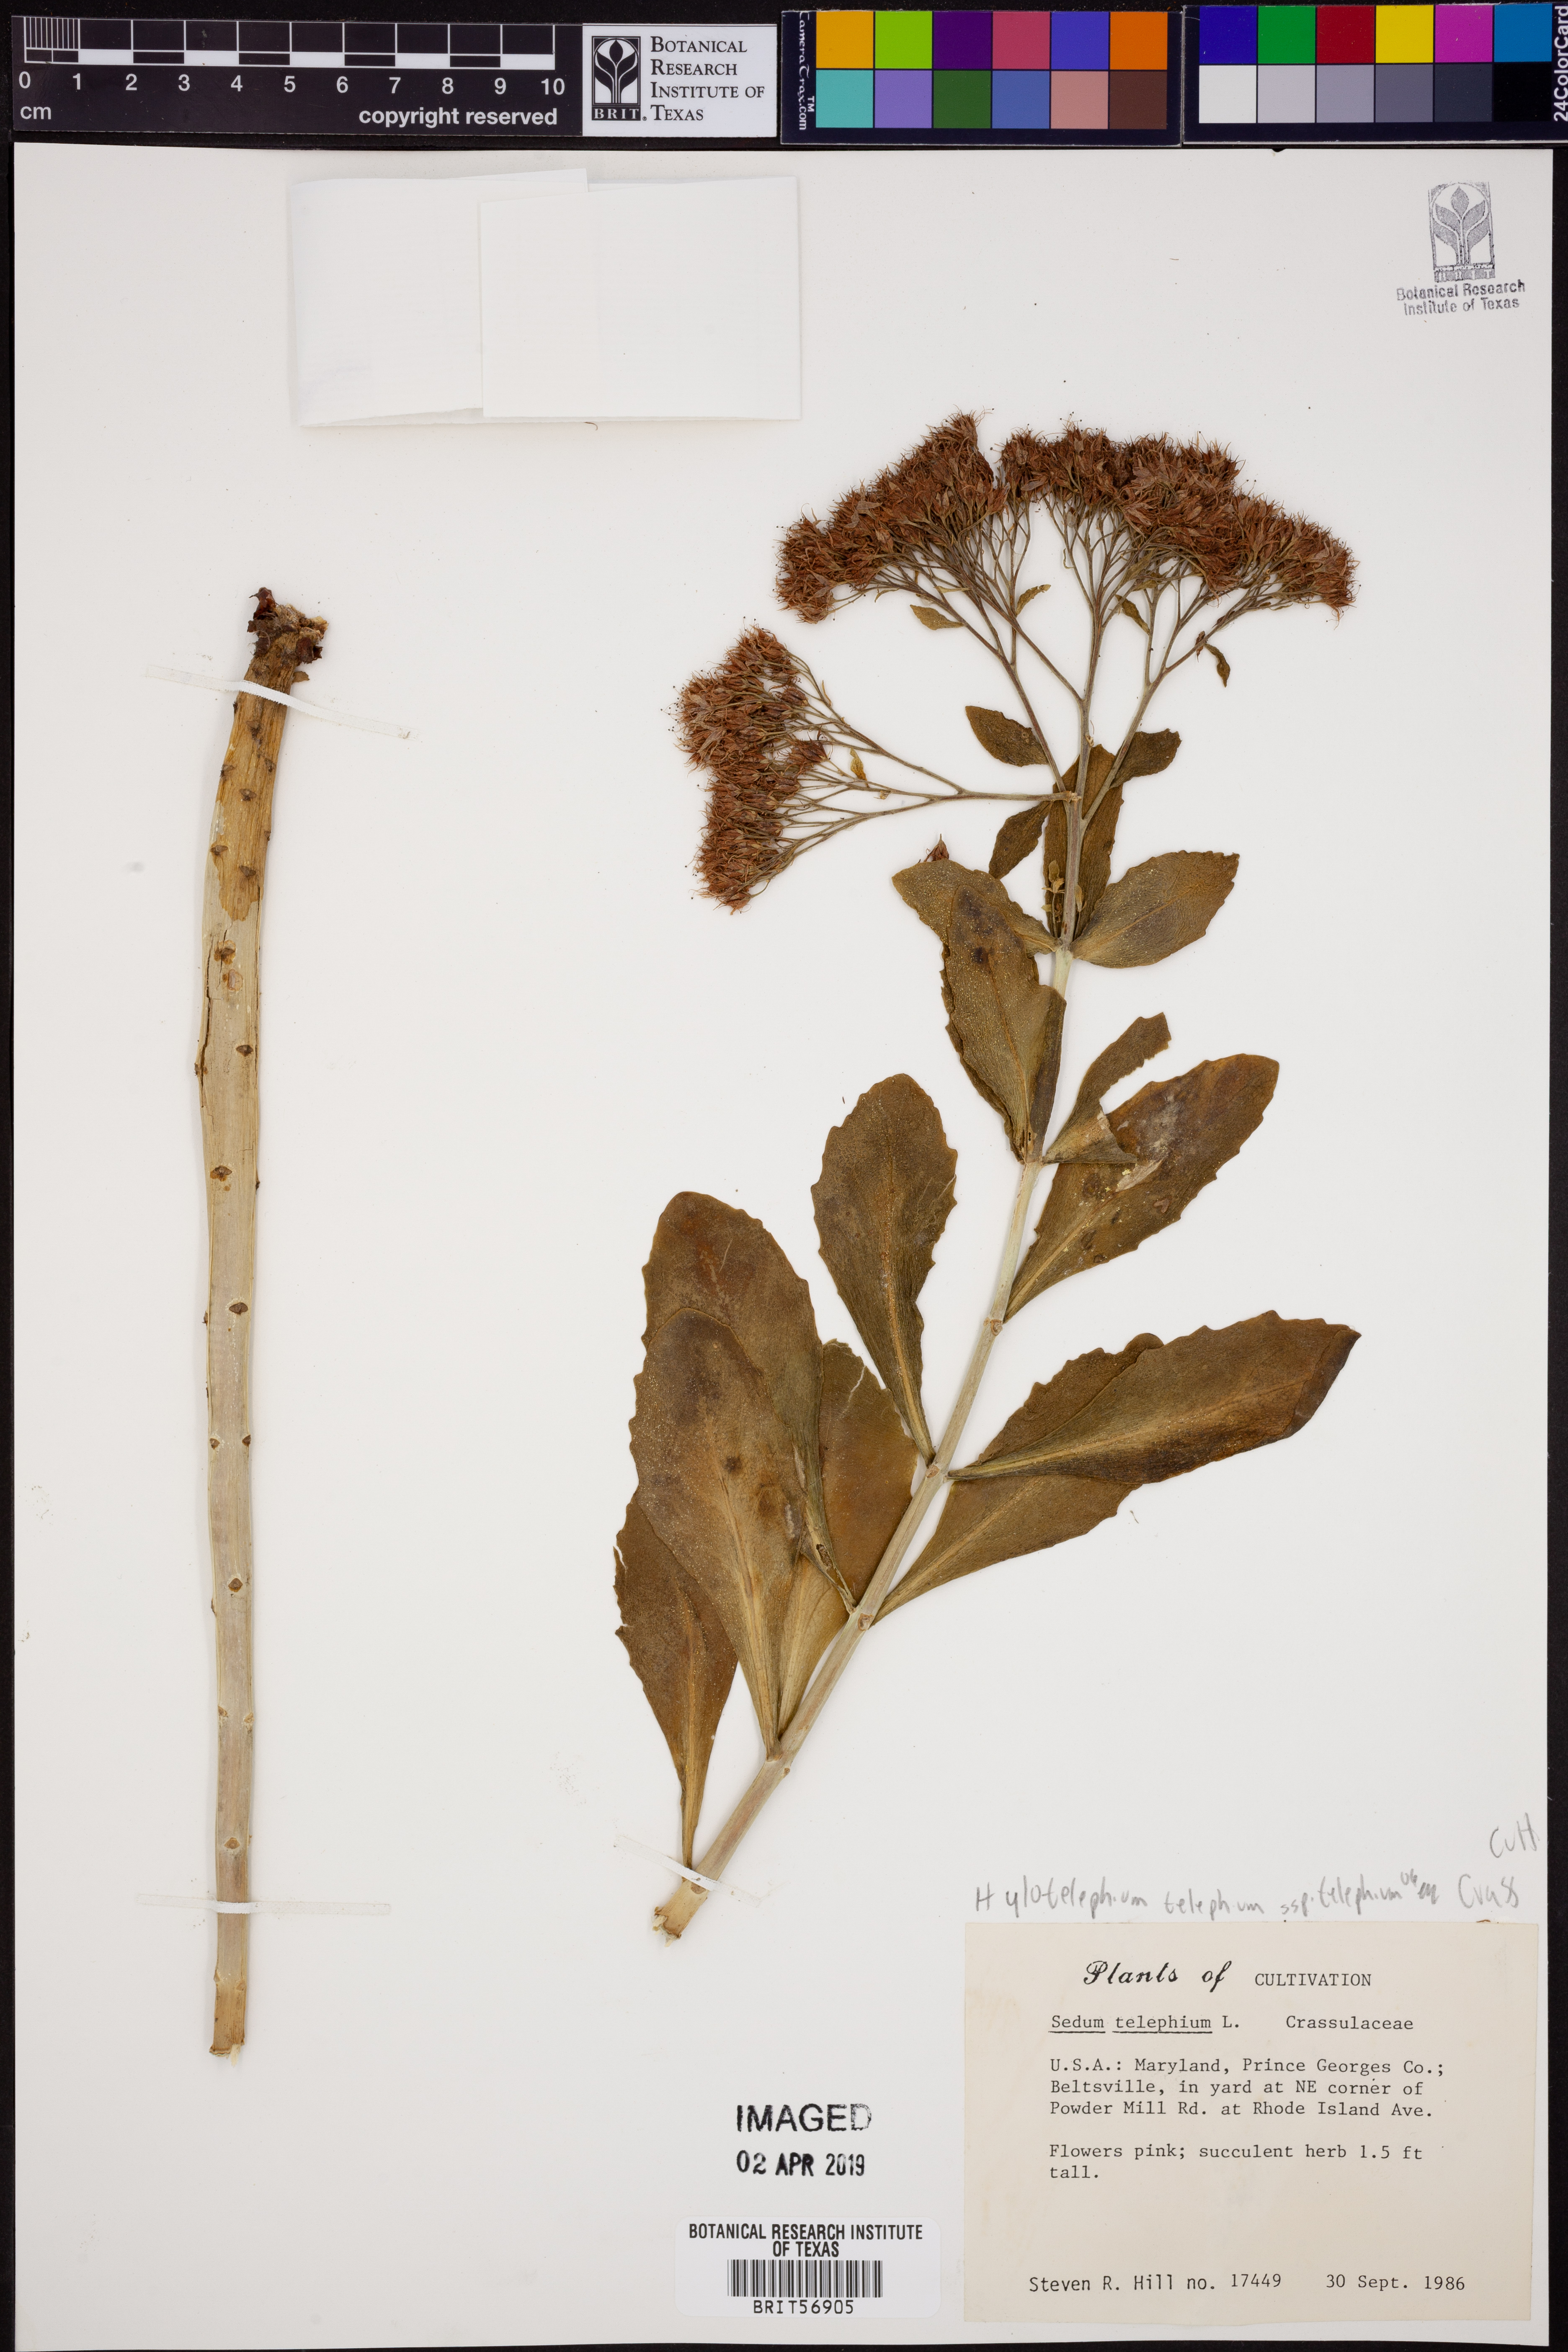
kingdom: Plantae
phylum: Tracheophyta
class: Magnoliopsida
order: Saxifragales
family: Crassulaceae
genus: Hylotelephium
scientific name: Hylotelephium telephium
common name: Live-forever
